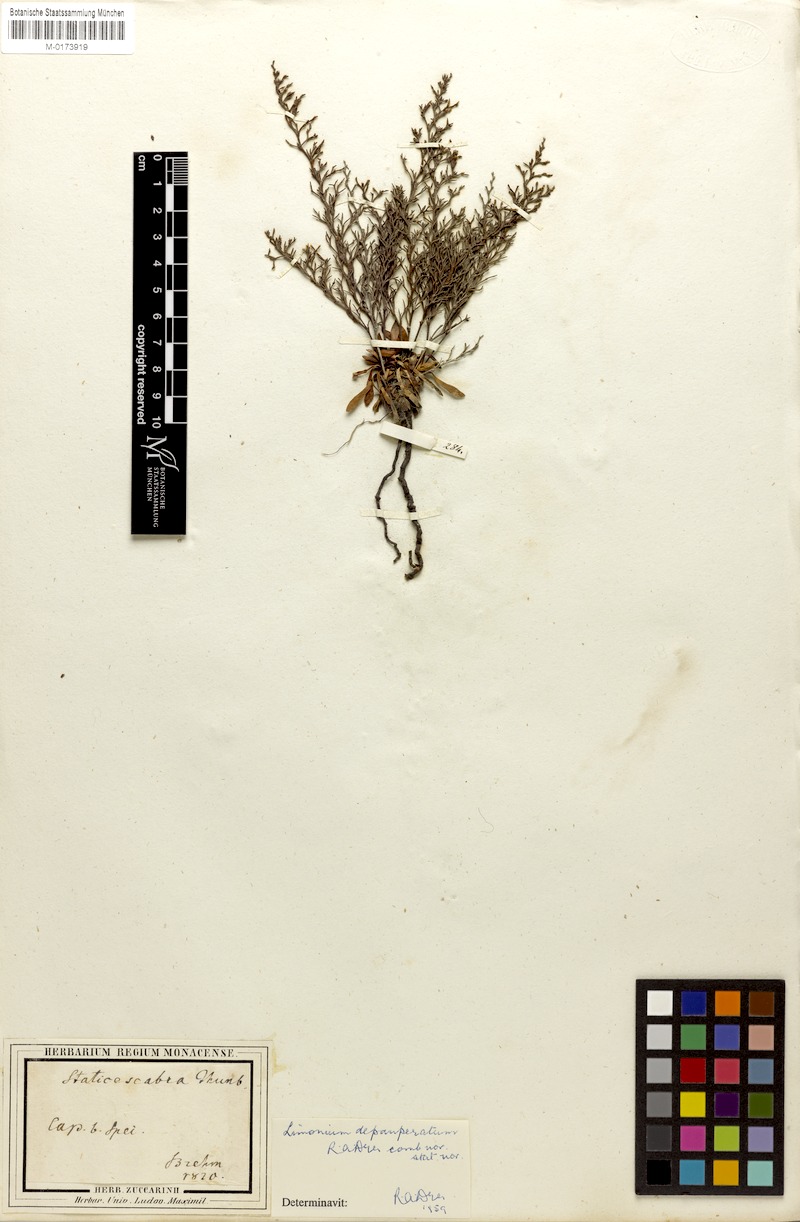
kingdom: Plantae
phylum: Tracheophyta
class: Magnoliopsida
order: Caryophyllales
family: Plumbaginaceae
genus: Limonium
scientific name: Limonium depauperatum
